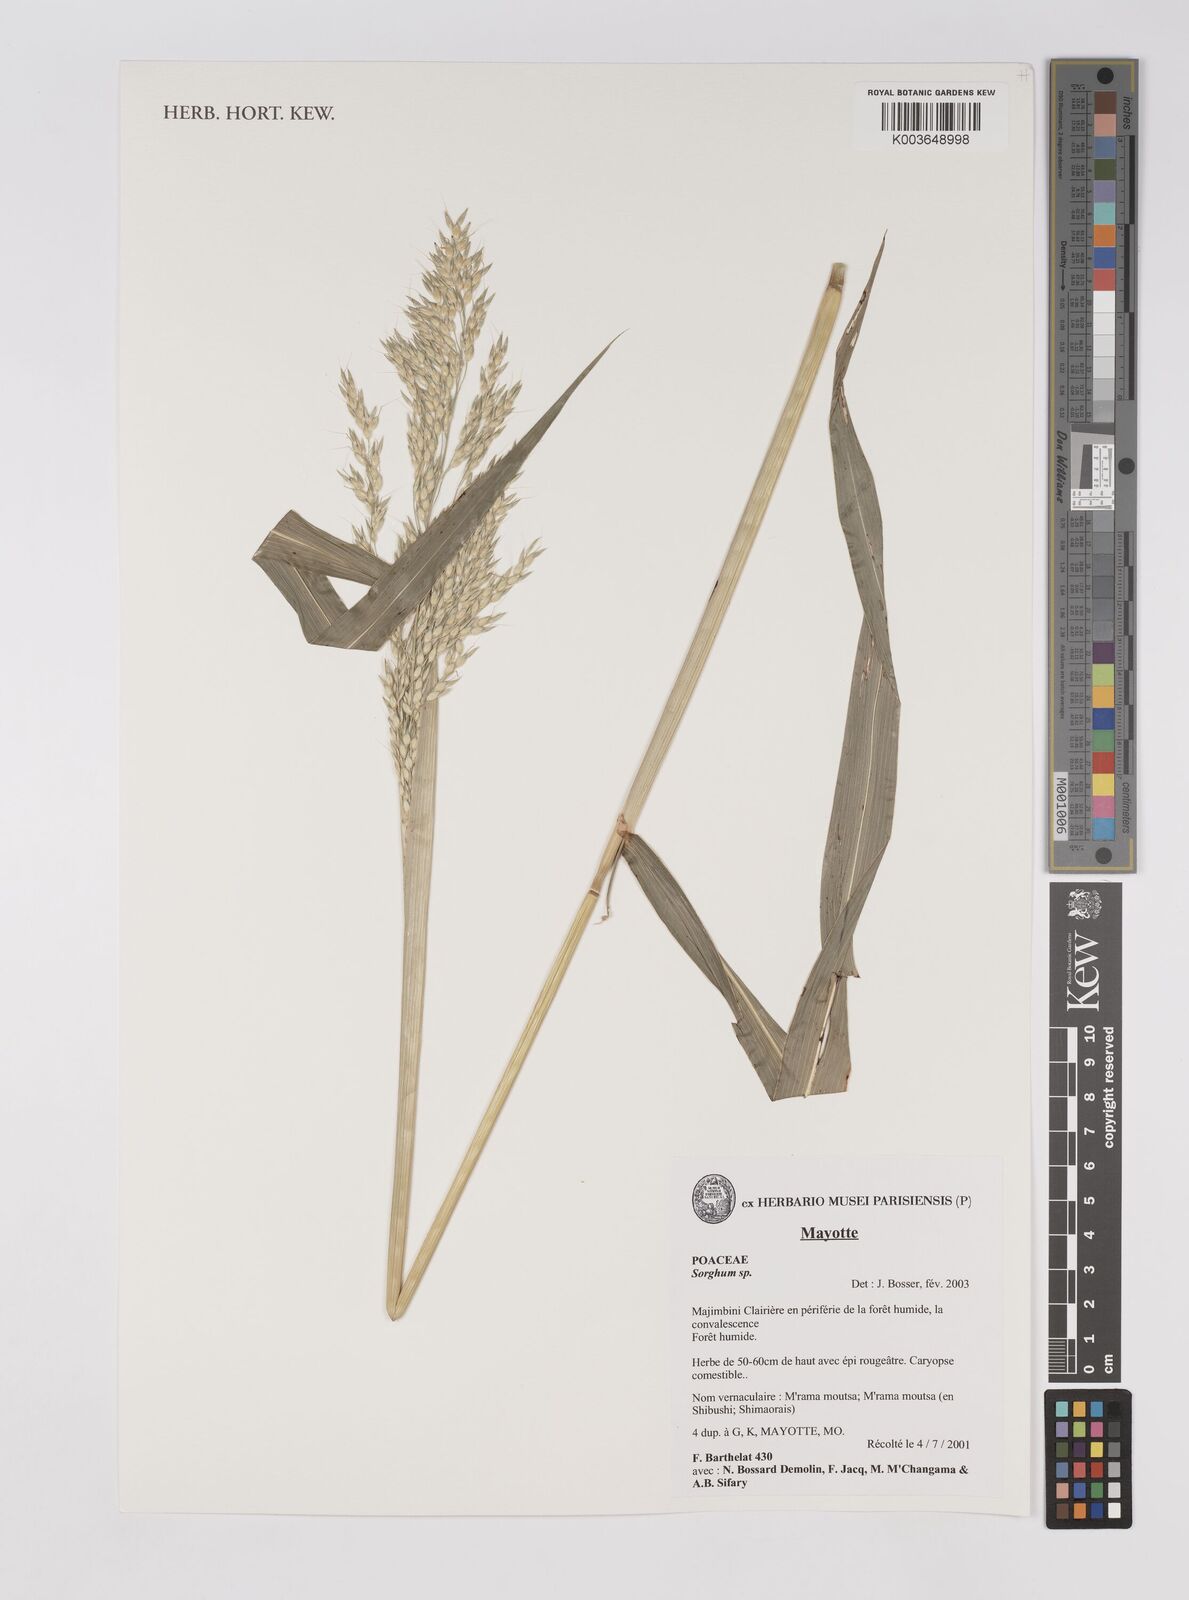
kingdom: Plantae
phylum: Tracheophyta
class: Liliopsida
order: Poales
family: Poaceae
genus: Sorghum
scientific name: Sorghum
